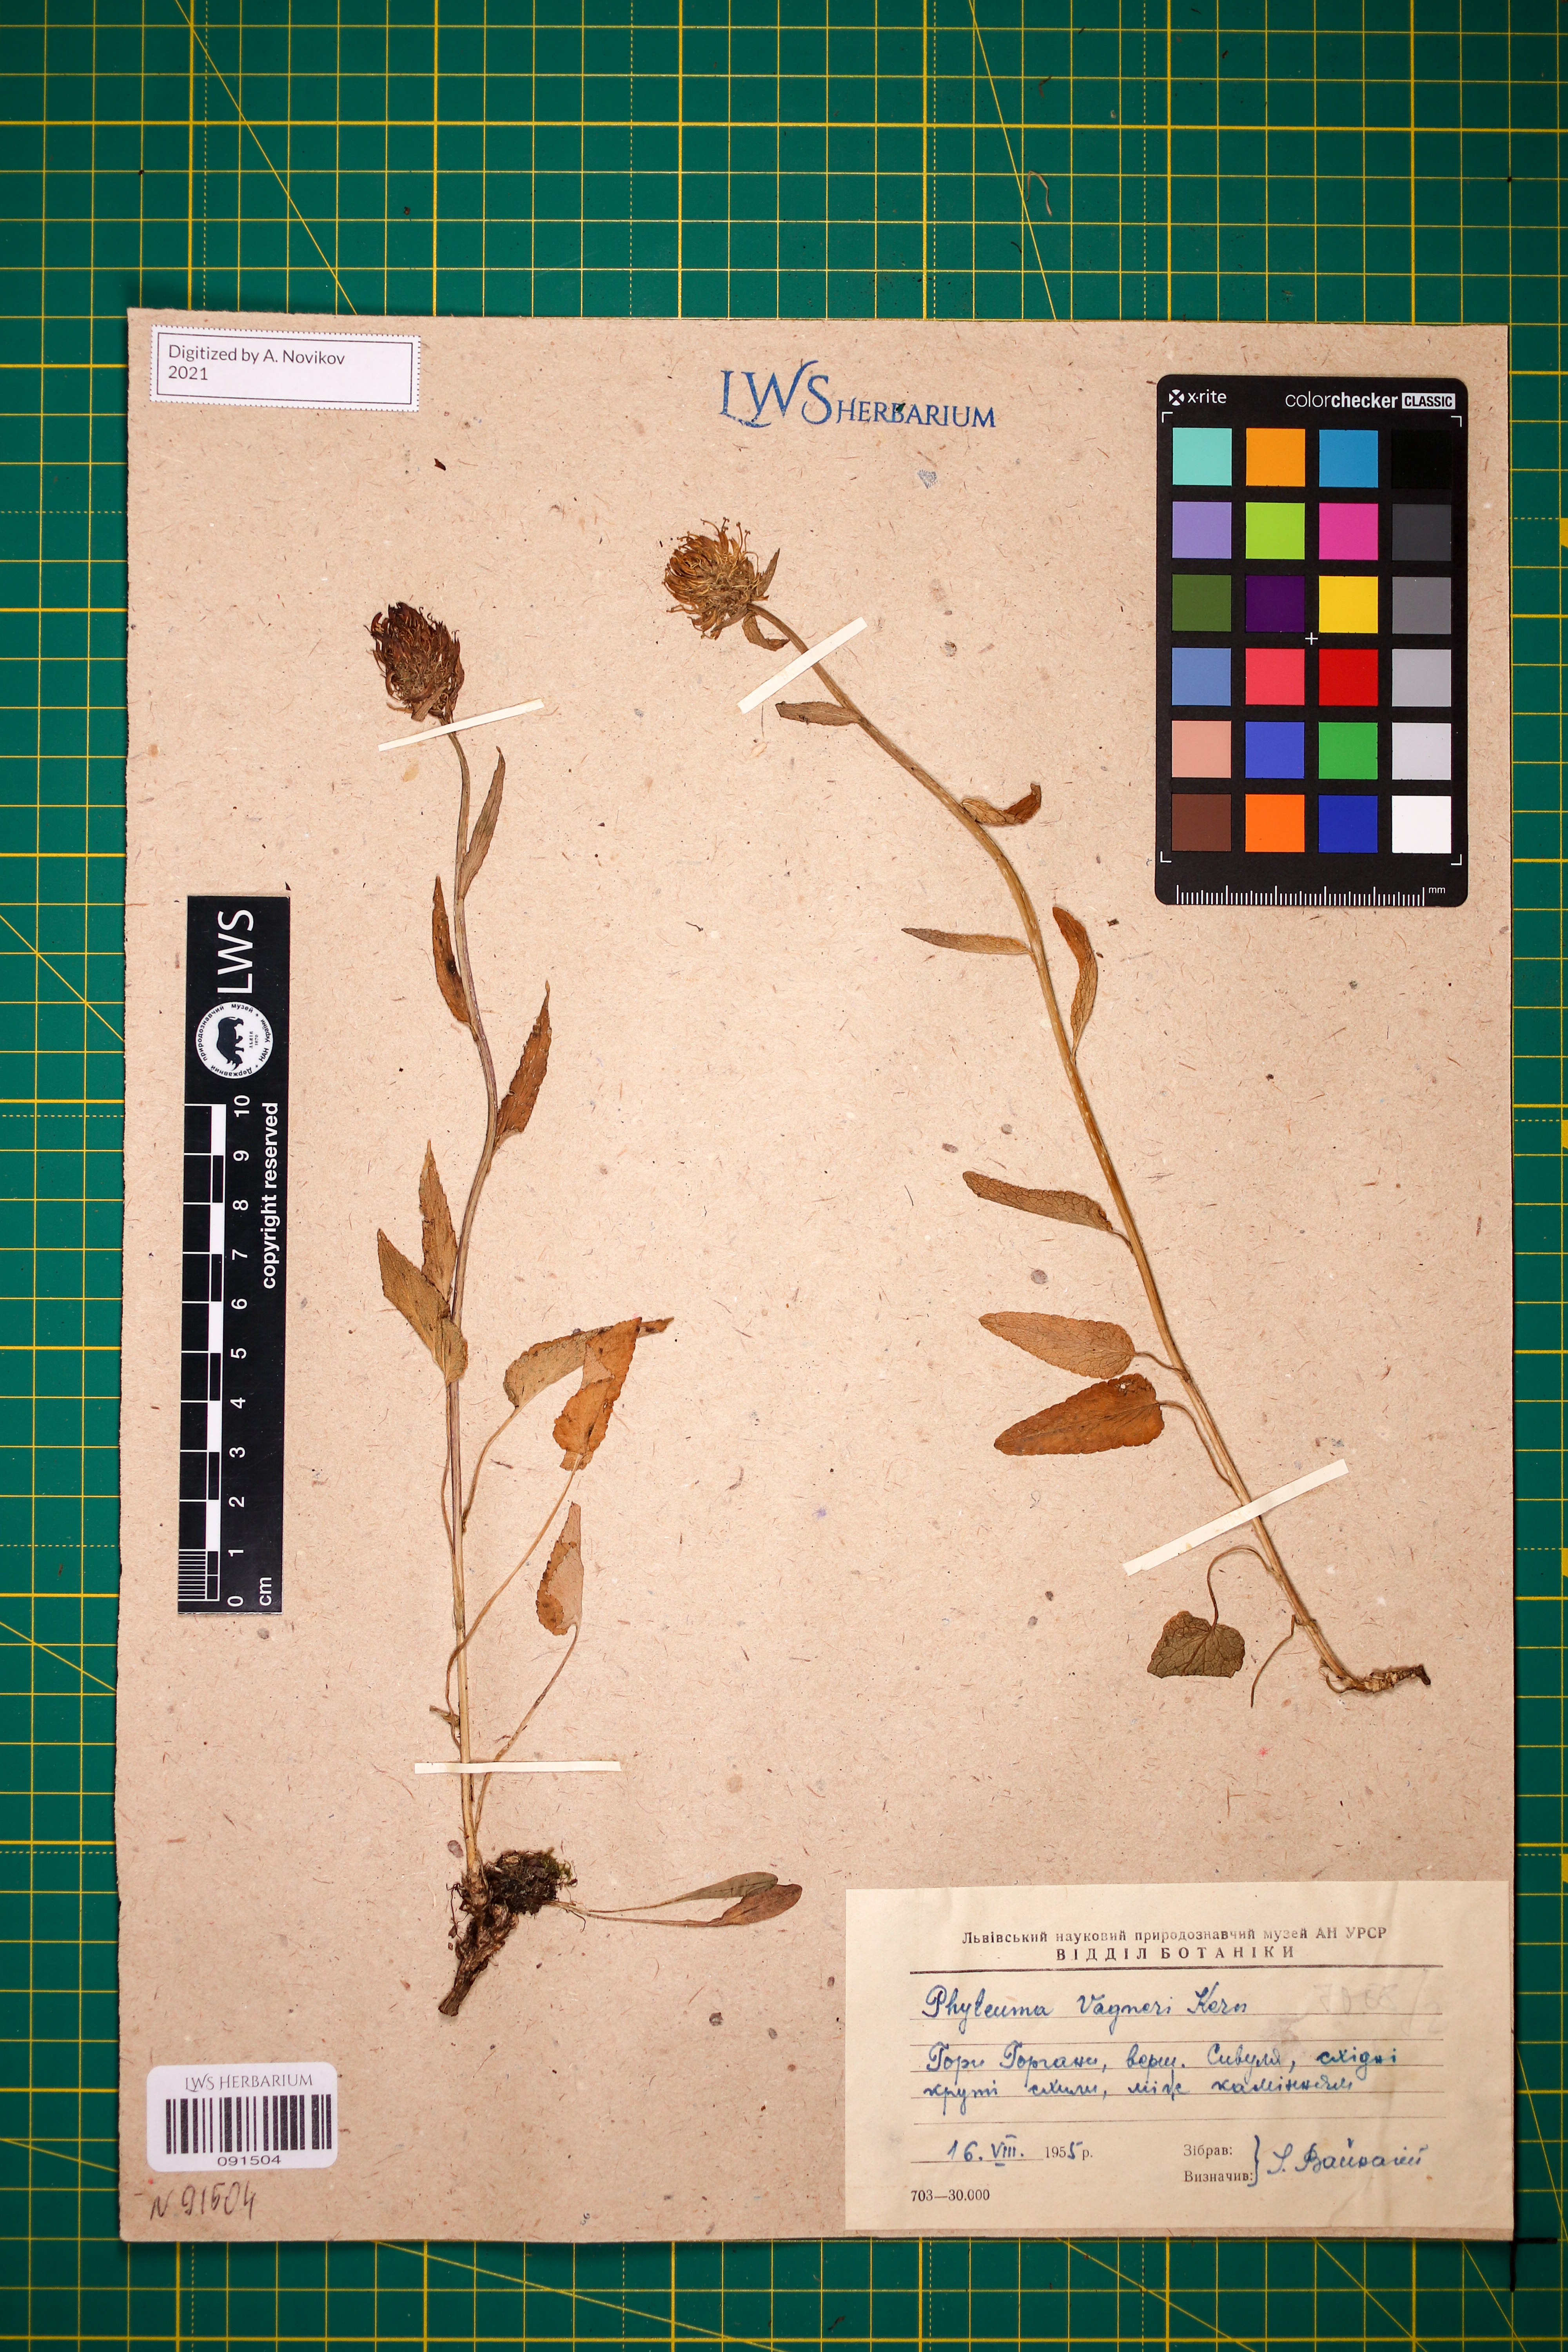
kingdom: Plantae
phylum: Tracheophyta
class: Magnoliopsida
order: Asterales
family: Campanulaceae
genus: Phyteuma
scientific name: Phyteuma vagneri
